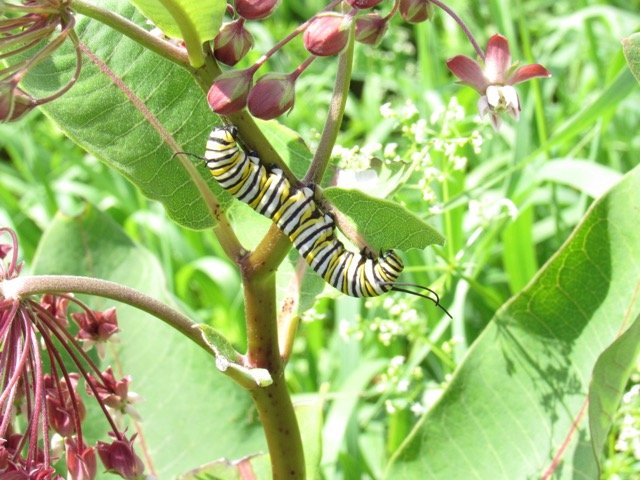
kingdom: Animalia
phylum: Arthropoda
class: Insecta
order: Lepidoptera
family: Nymphalidae
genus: Danaus
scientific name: Danaus plexippus
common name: Monarch
